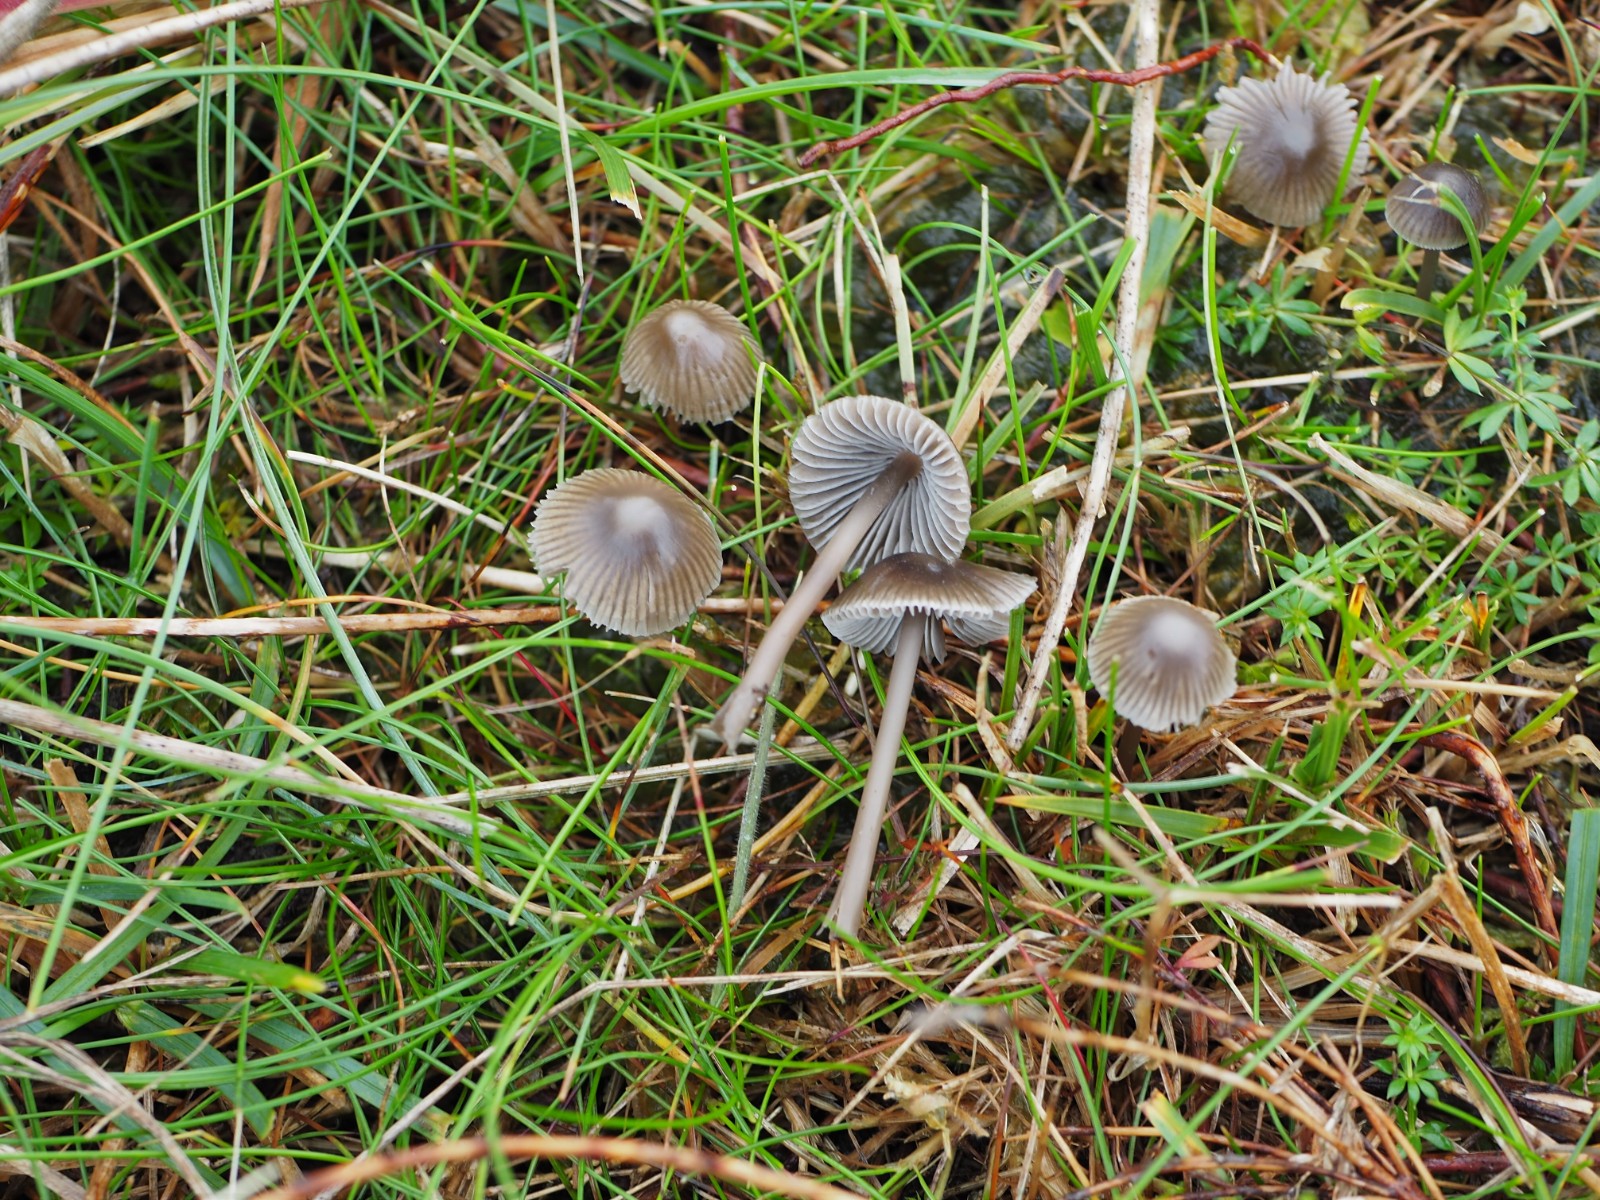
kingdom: Fungi
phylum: Basidiomycota
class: Agaricomycetes
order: Agaricales
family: Mycenaceae
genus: Mycena
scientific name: Mycena aetites
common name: plæne-huesvamp
